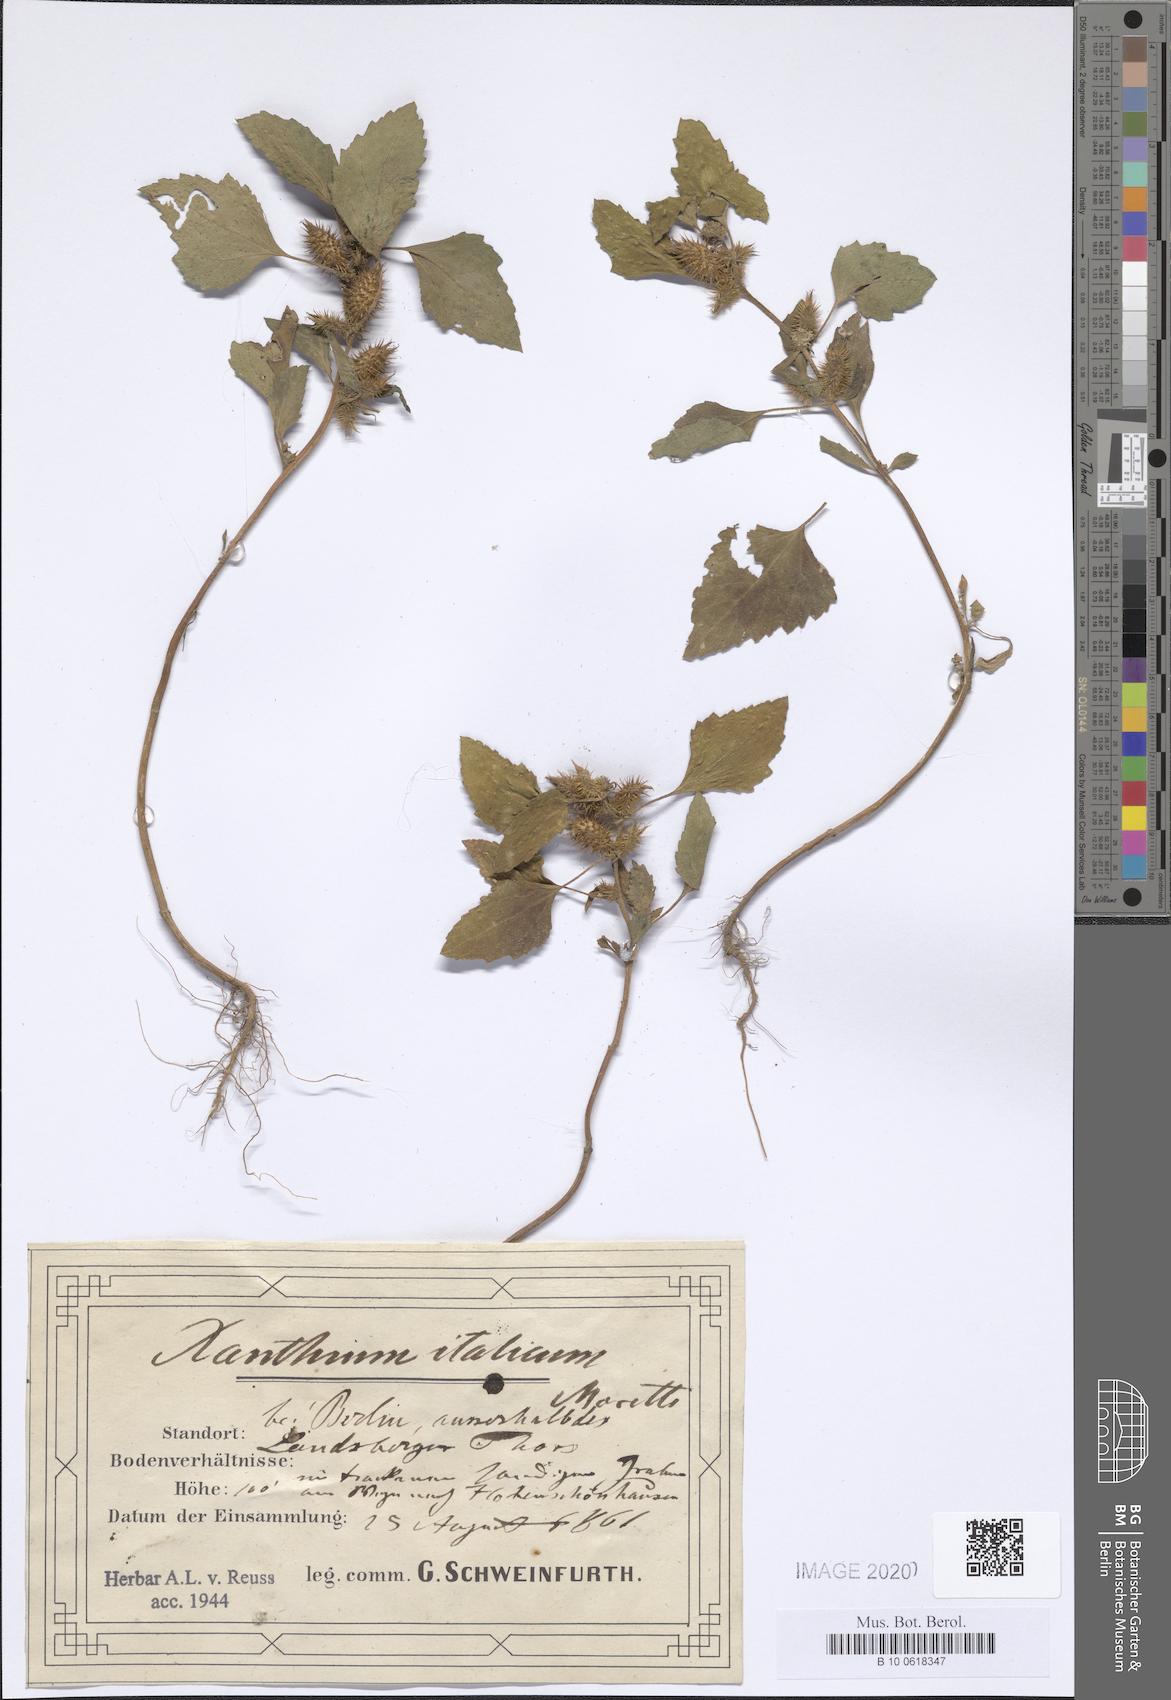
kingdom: Plantae
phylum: Tracheophyta
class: Magnoliopsida
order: Asterales
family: Asteraceae
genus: Xanthium
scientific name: Xanthium orientale
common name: Californian burr
